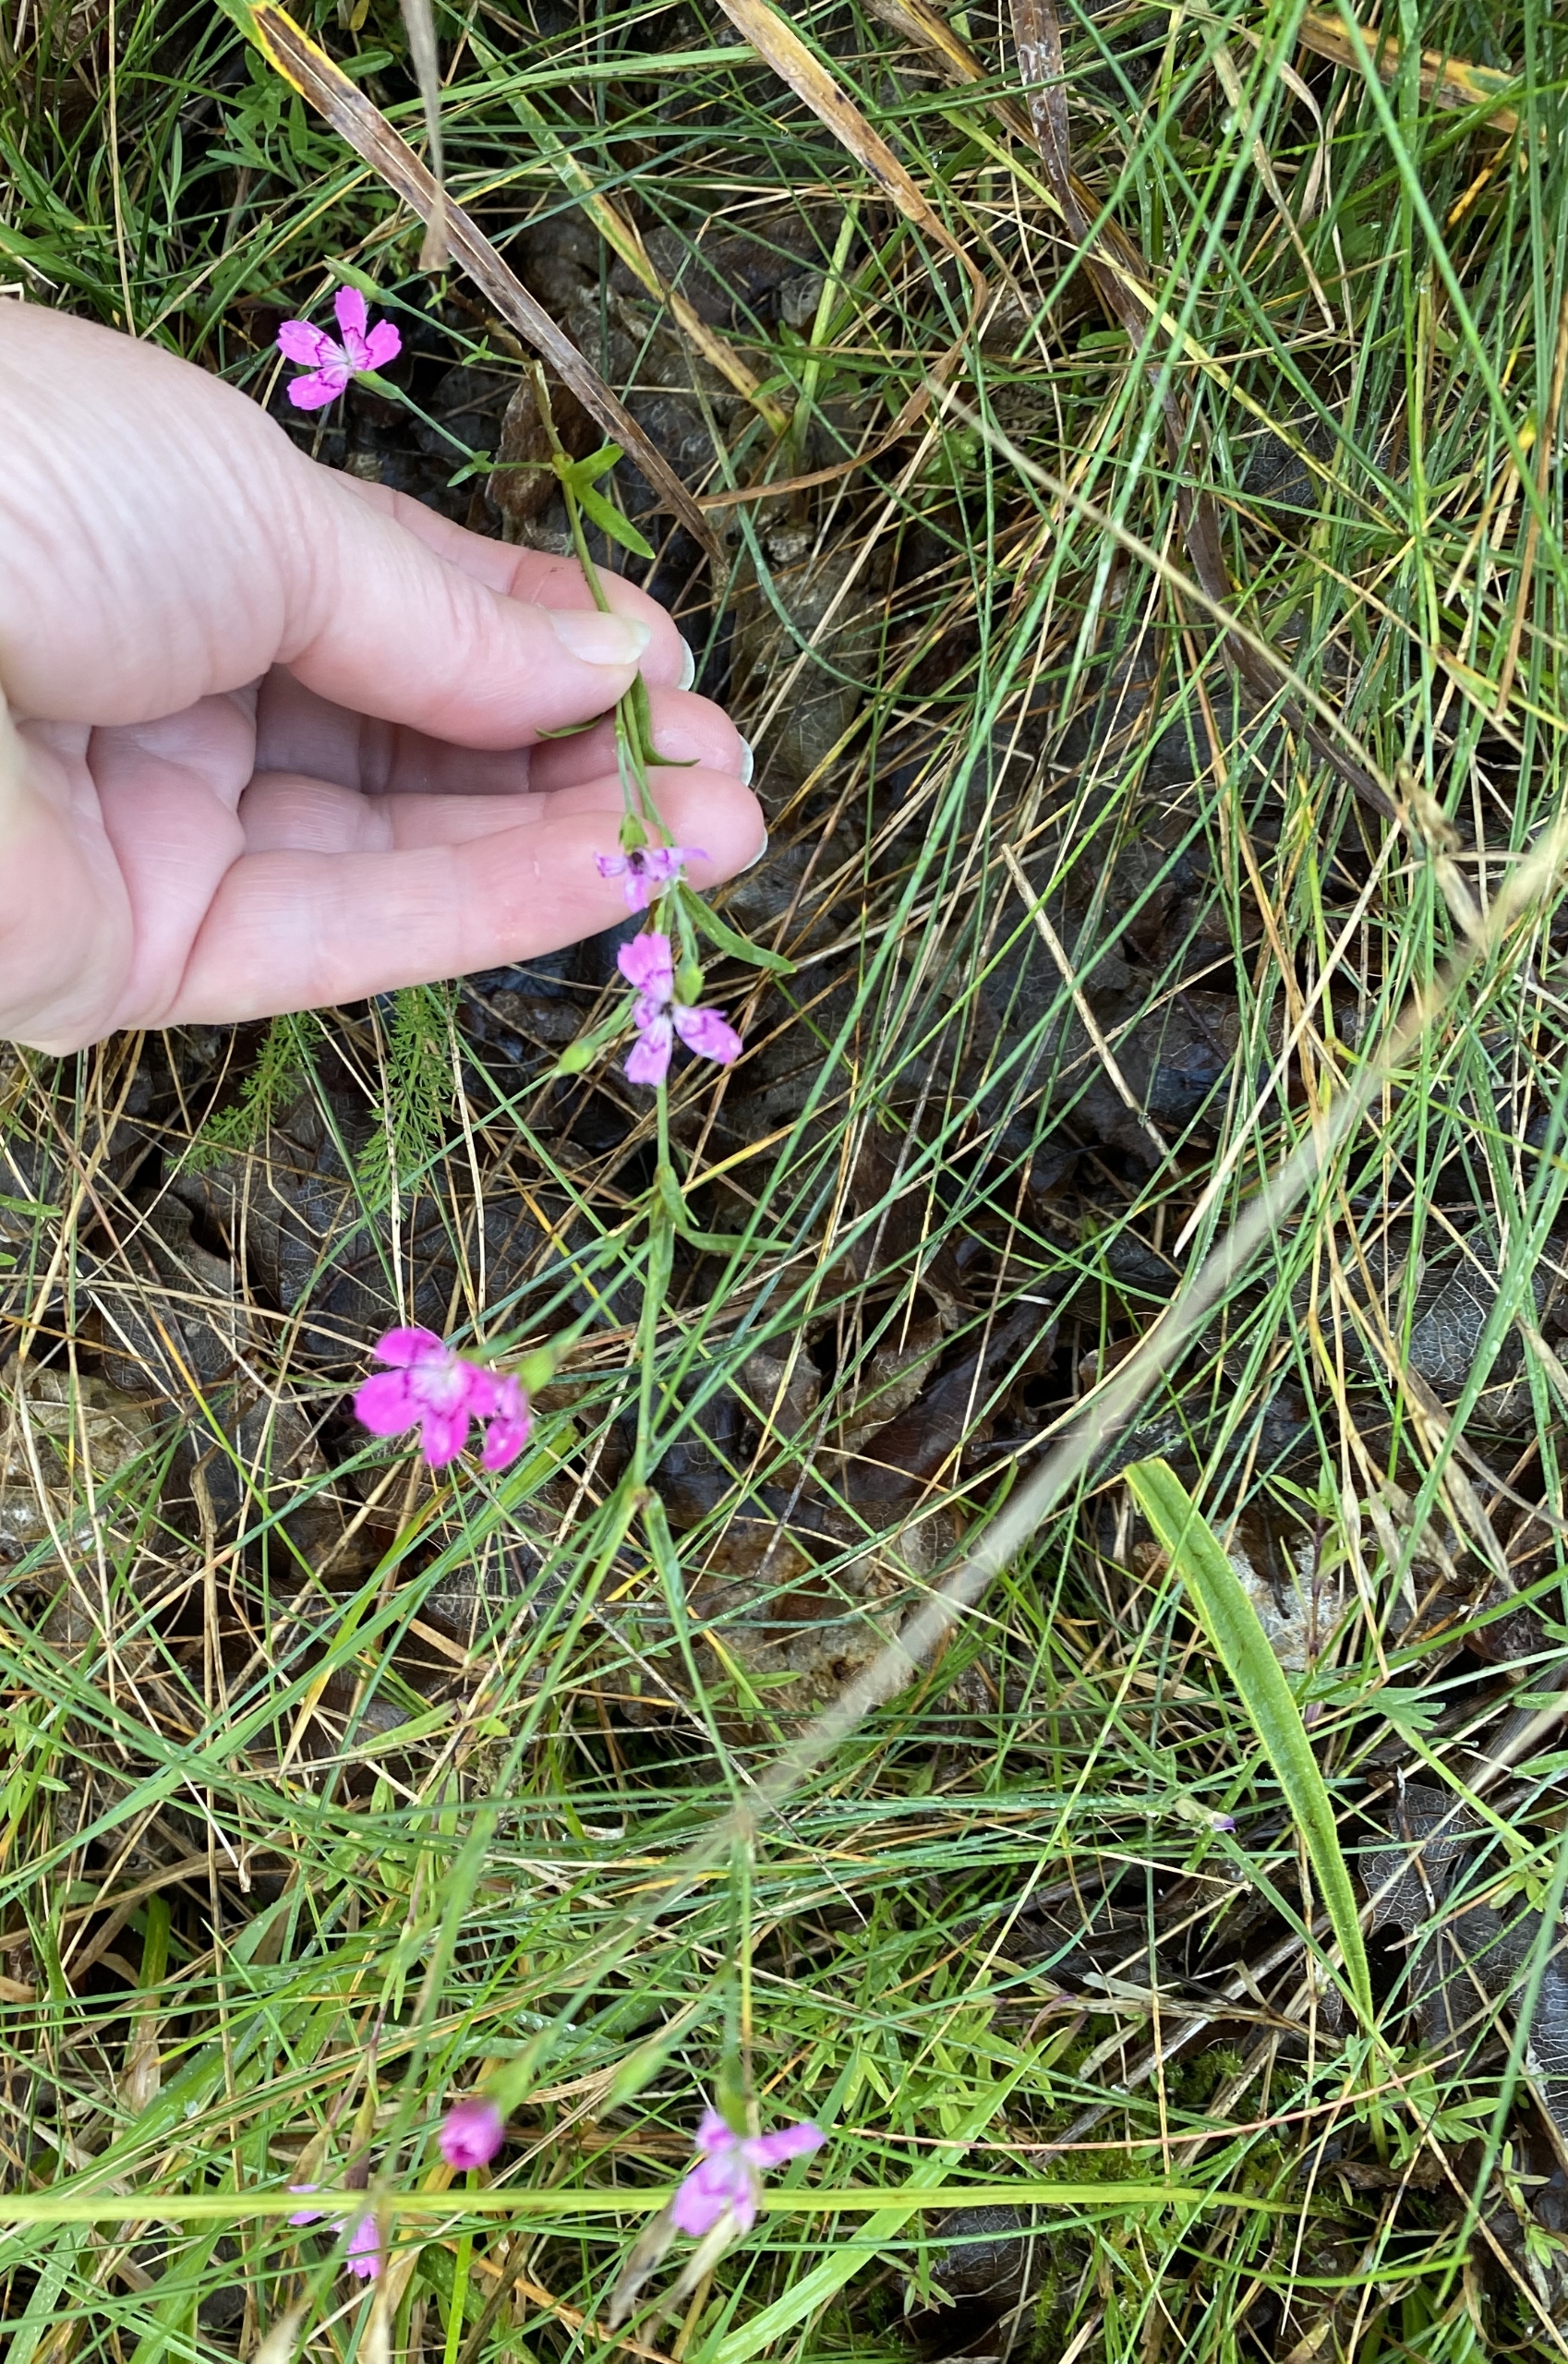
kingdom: Plantae
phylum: Tracheophyta
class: Magnoliopsida
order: Caryophyllales
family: Caryophyllaceae
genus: Dianthus
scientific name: Dianthus deltoides
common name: Bakke-nellike
